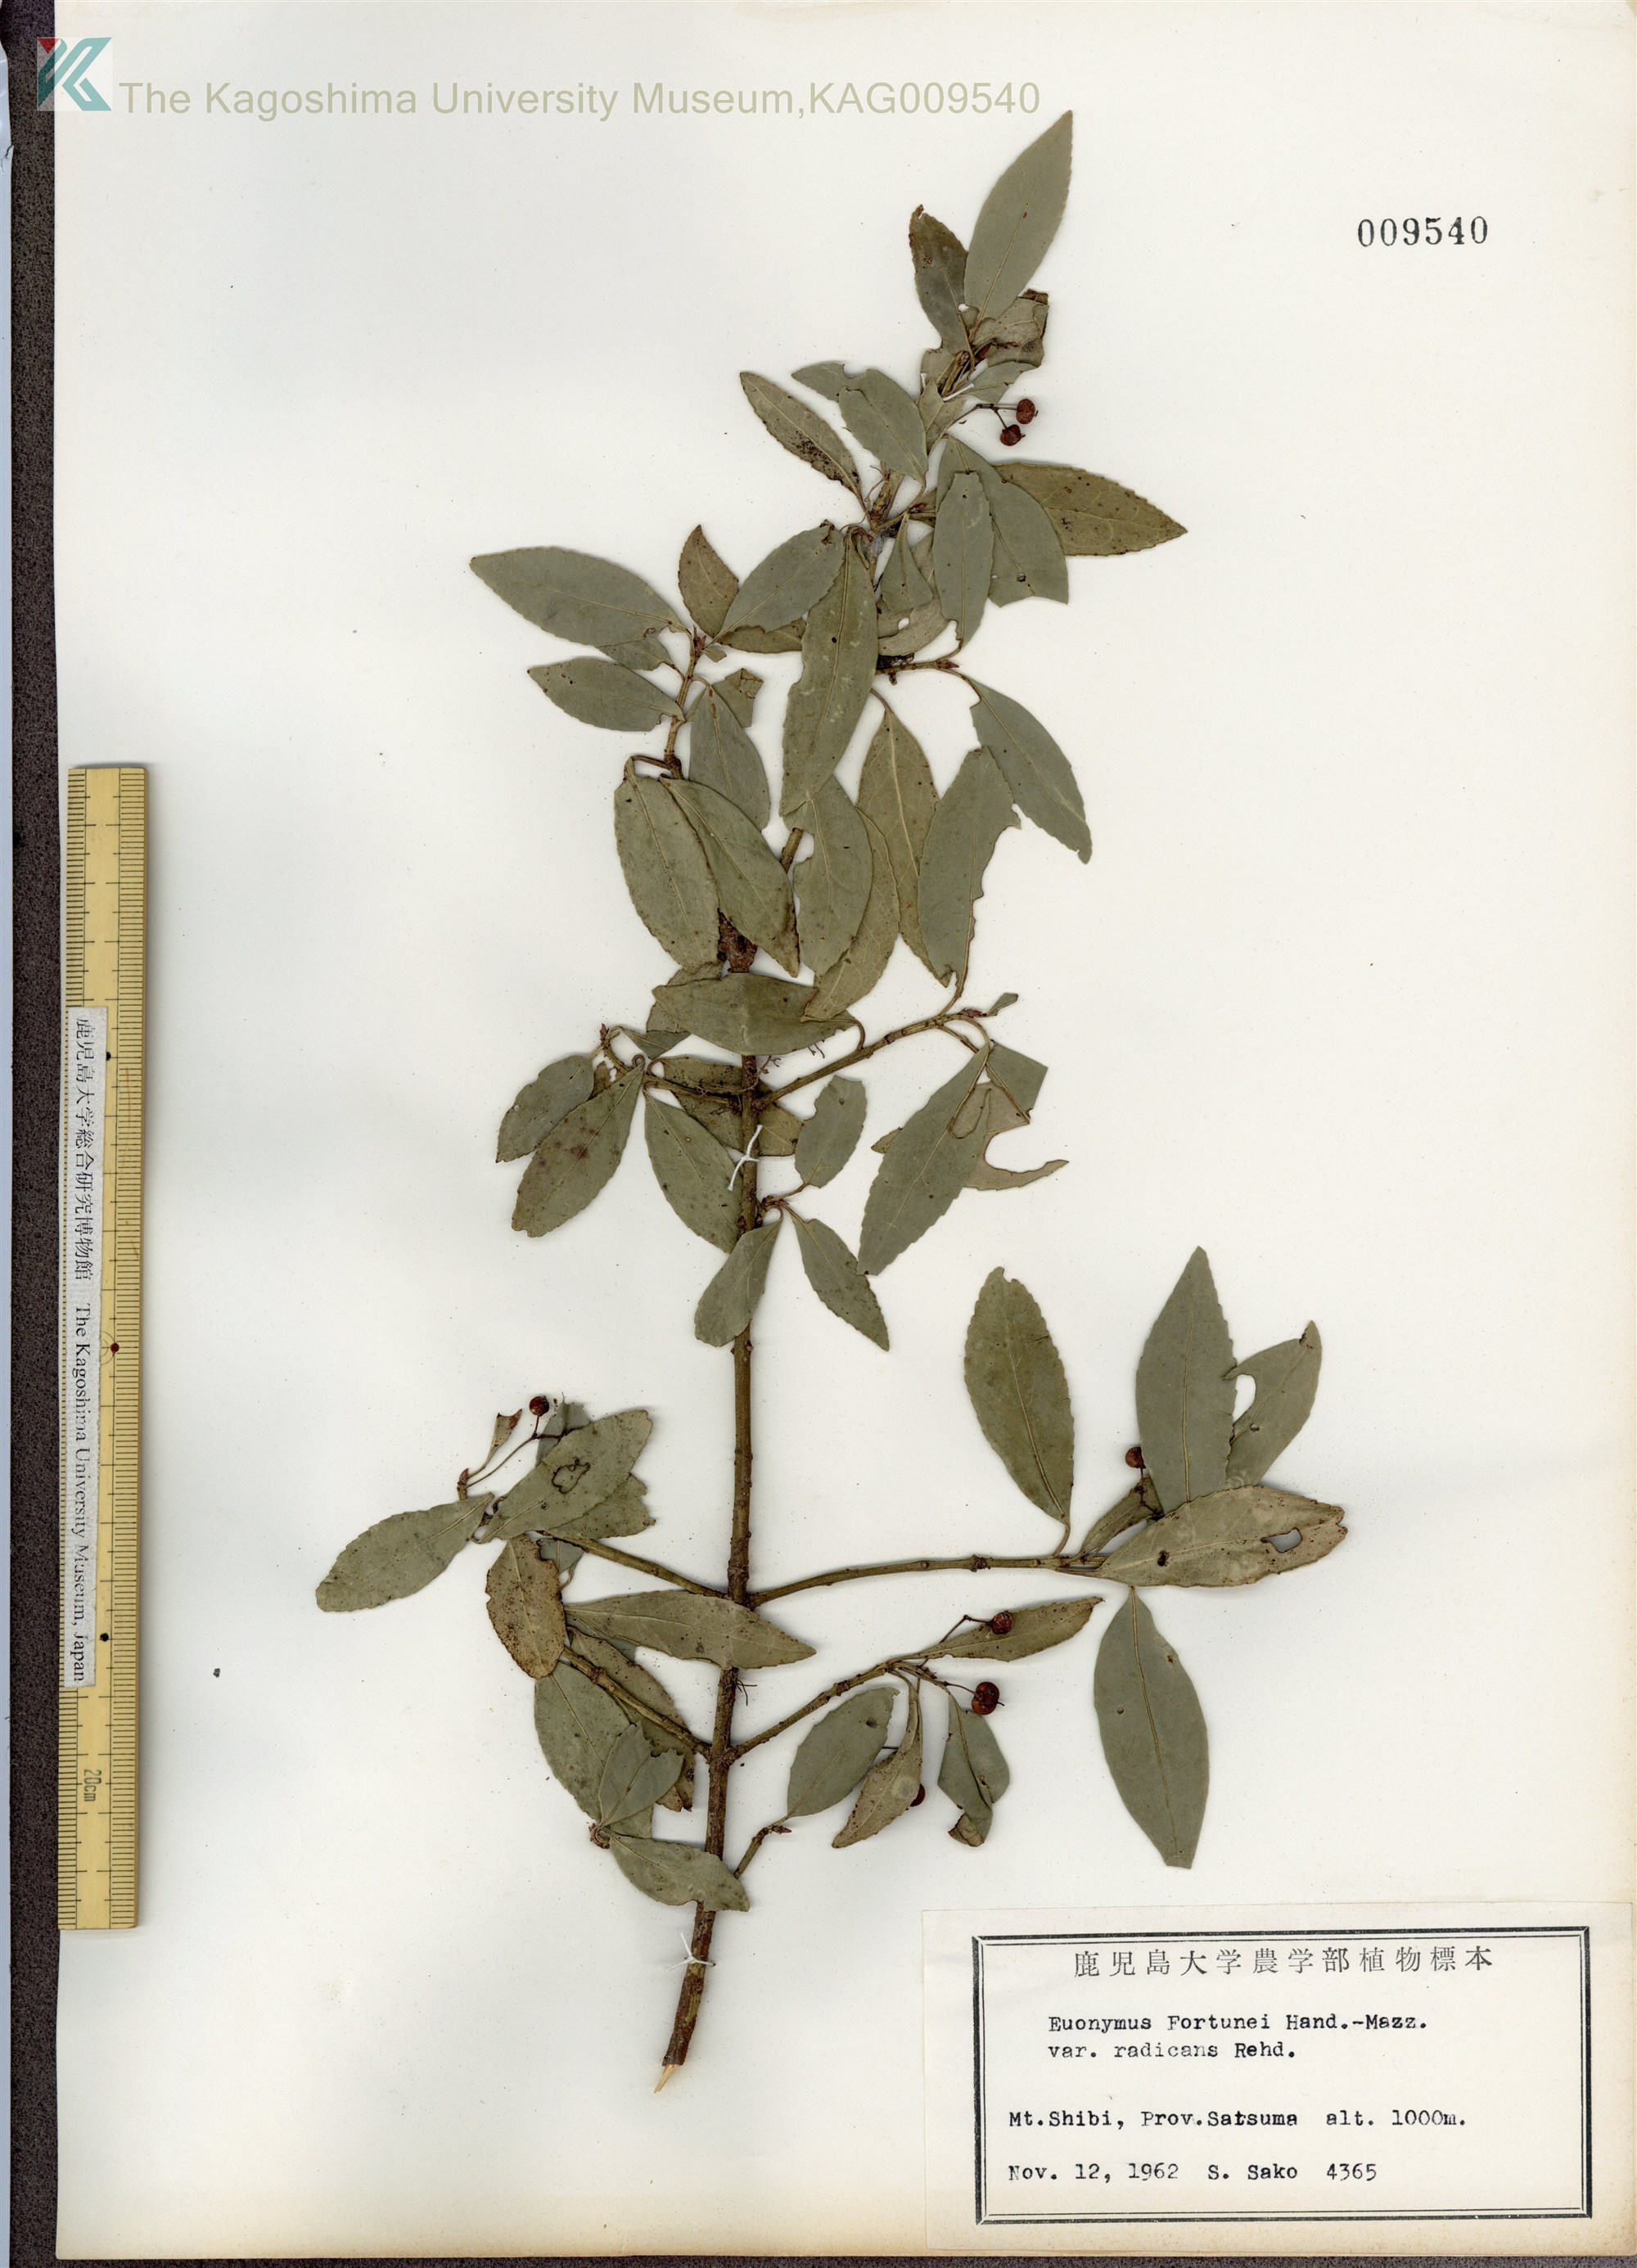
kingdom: Plantae
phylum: Tracheophyta
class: Magnoliopsida
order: Celastrales
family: Celastraceae
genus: Euonymus
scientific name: Euonymus fortunei
